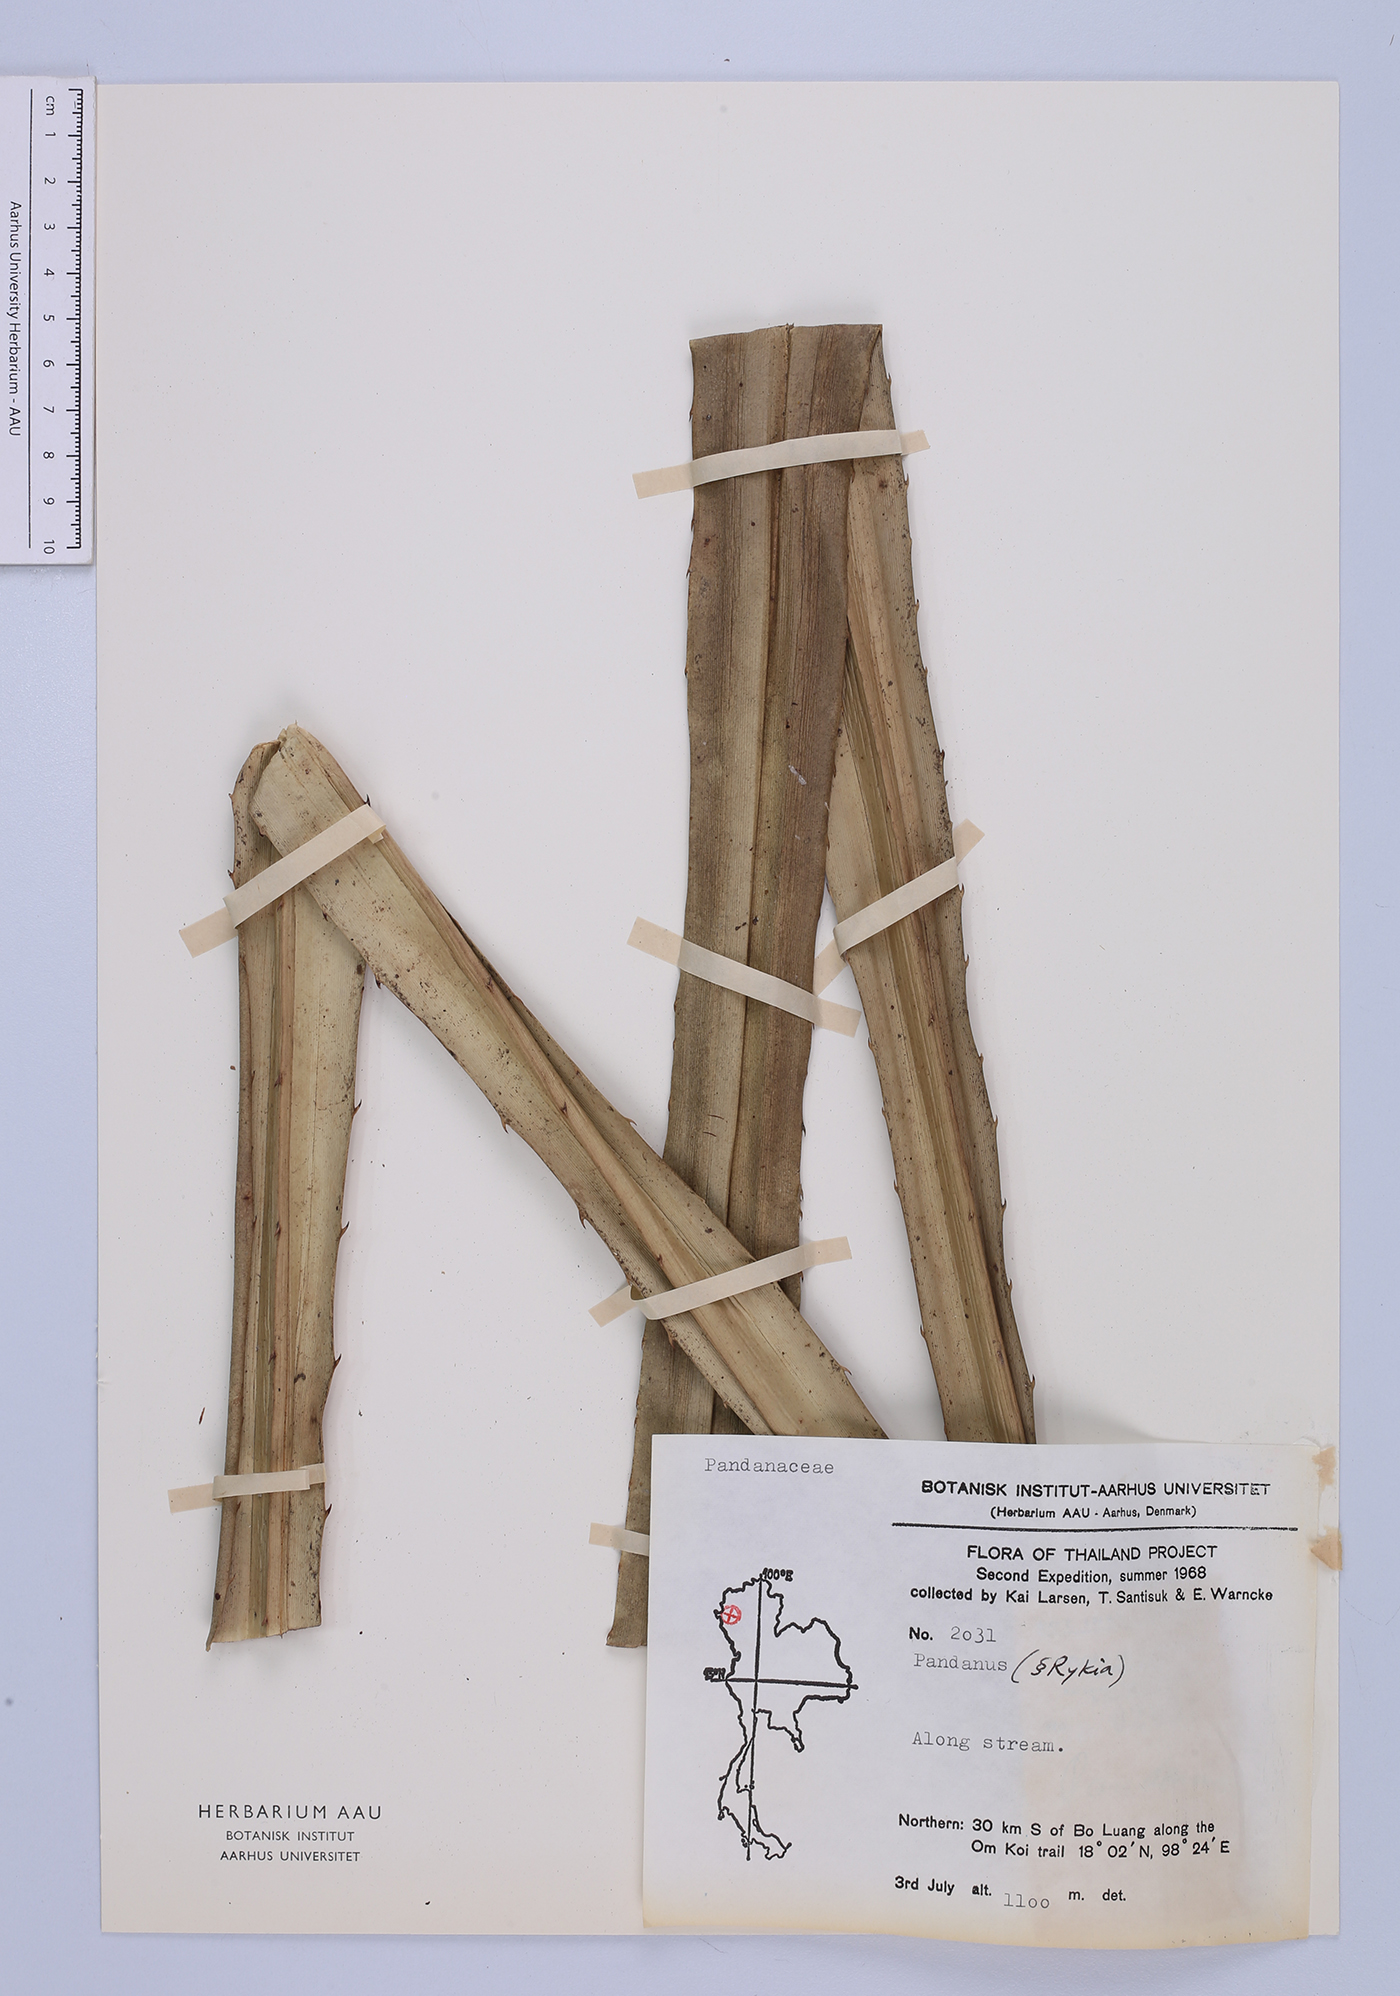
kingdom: Plantae
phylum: Tracheophyta
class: Liliopsida
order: Pandanales
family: Pandanaceae
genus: Pandanus
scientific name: Pandanus
